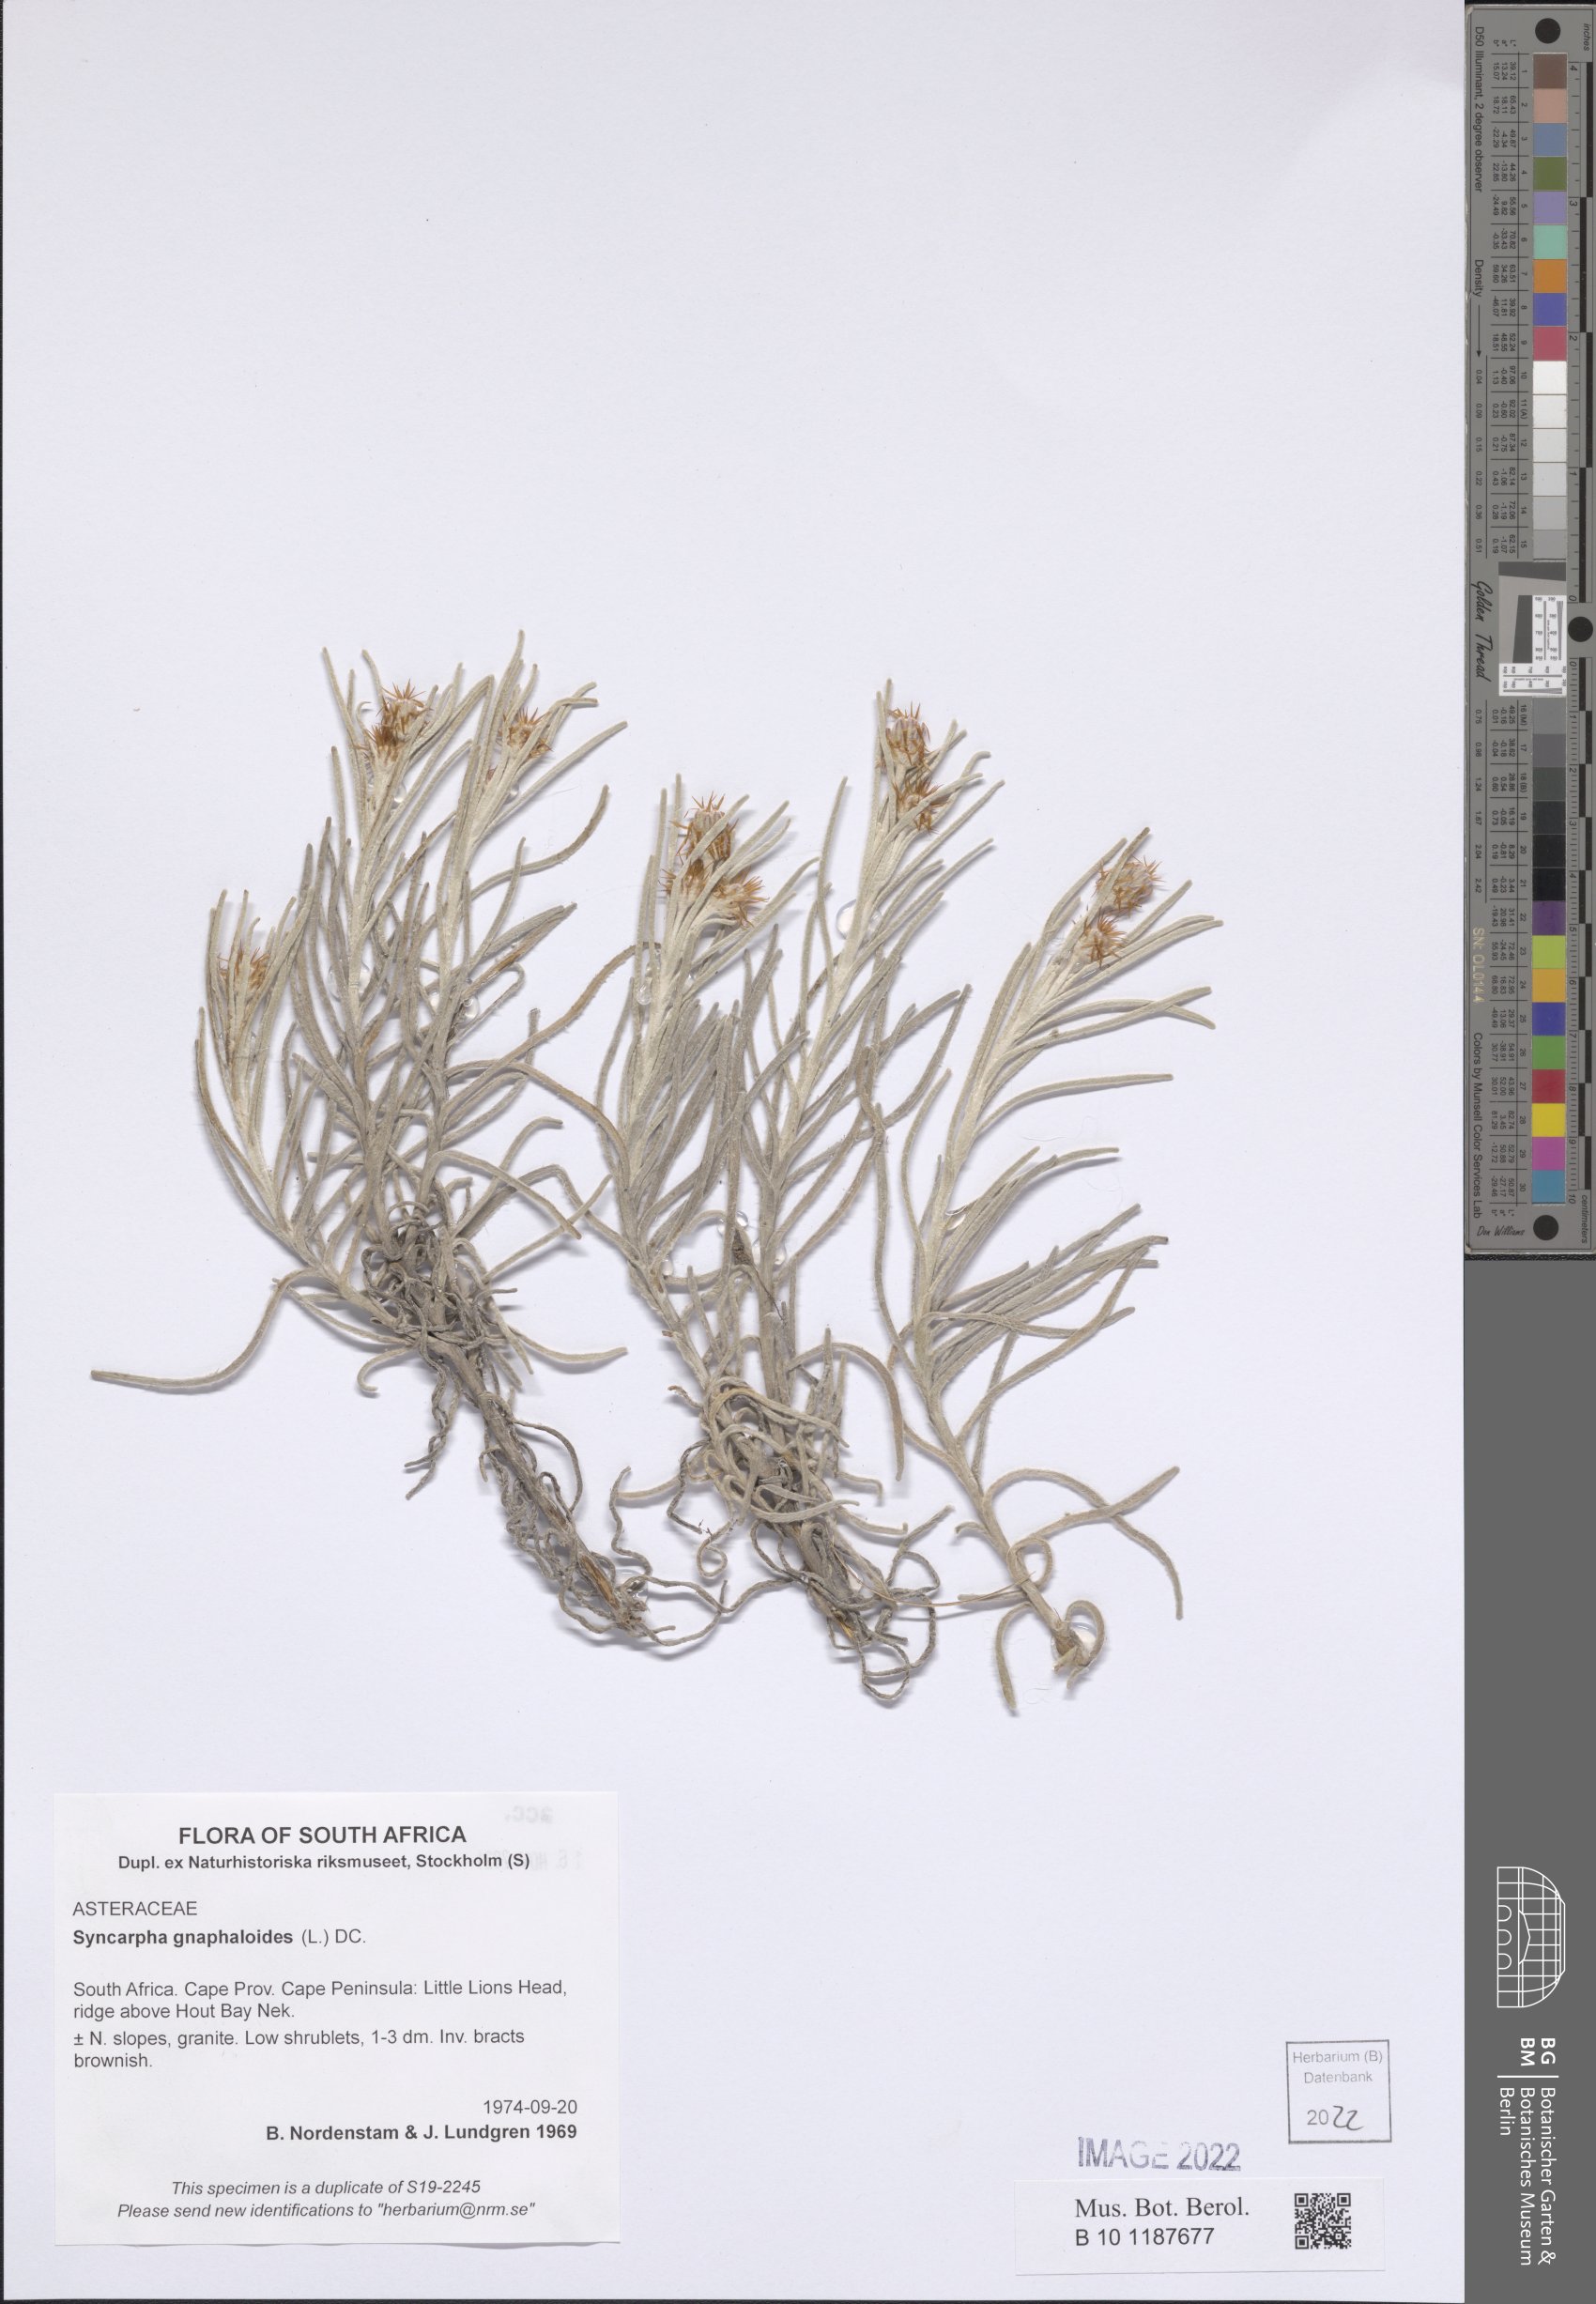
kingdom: Plantae
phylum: Tracheophyta
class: Magnoliopsida
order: Asterales
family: Asteraceae
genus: Syncarpha
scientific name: Syncarpha gnaphaloides
